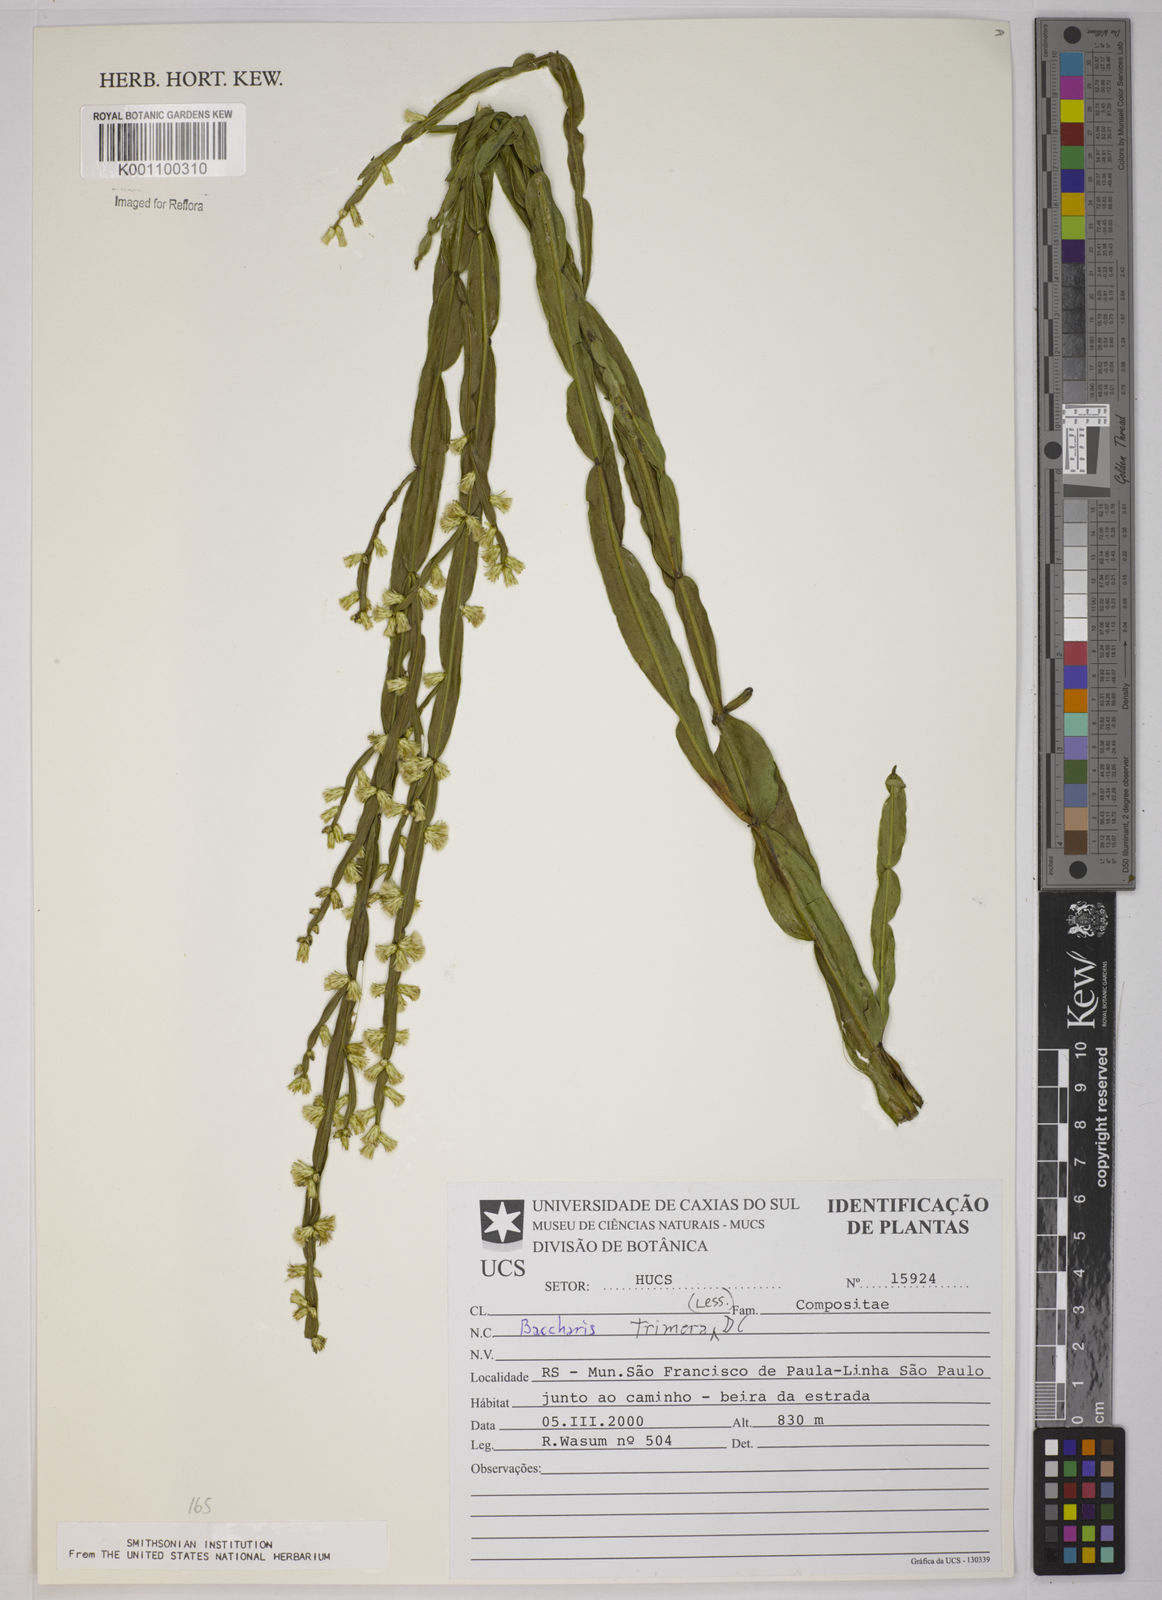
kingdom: Plantae
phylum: Tracheophyta
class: Magnoliopsida
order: Asterales
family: Asteraceae
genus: Baccharis
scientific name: Baccharis trimera
